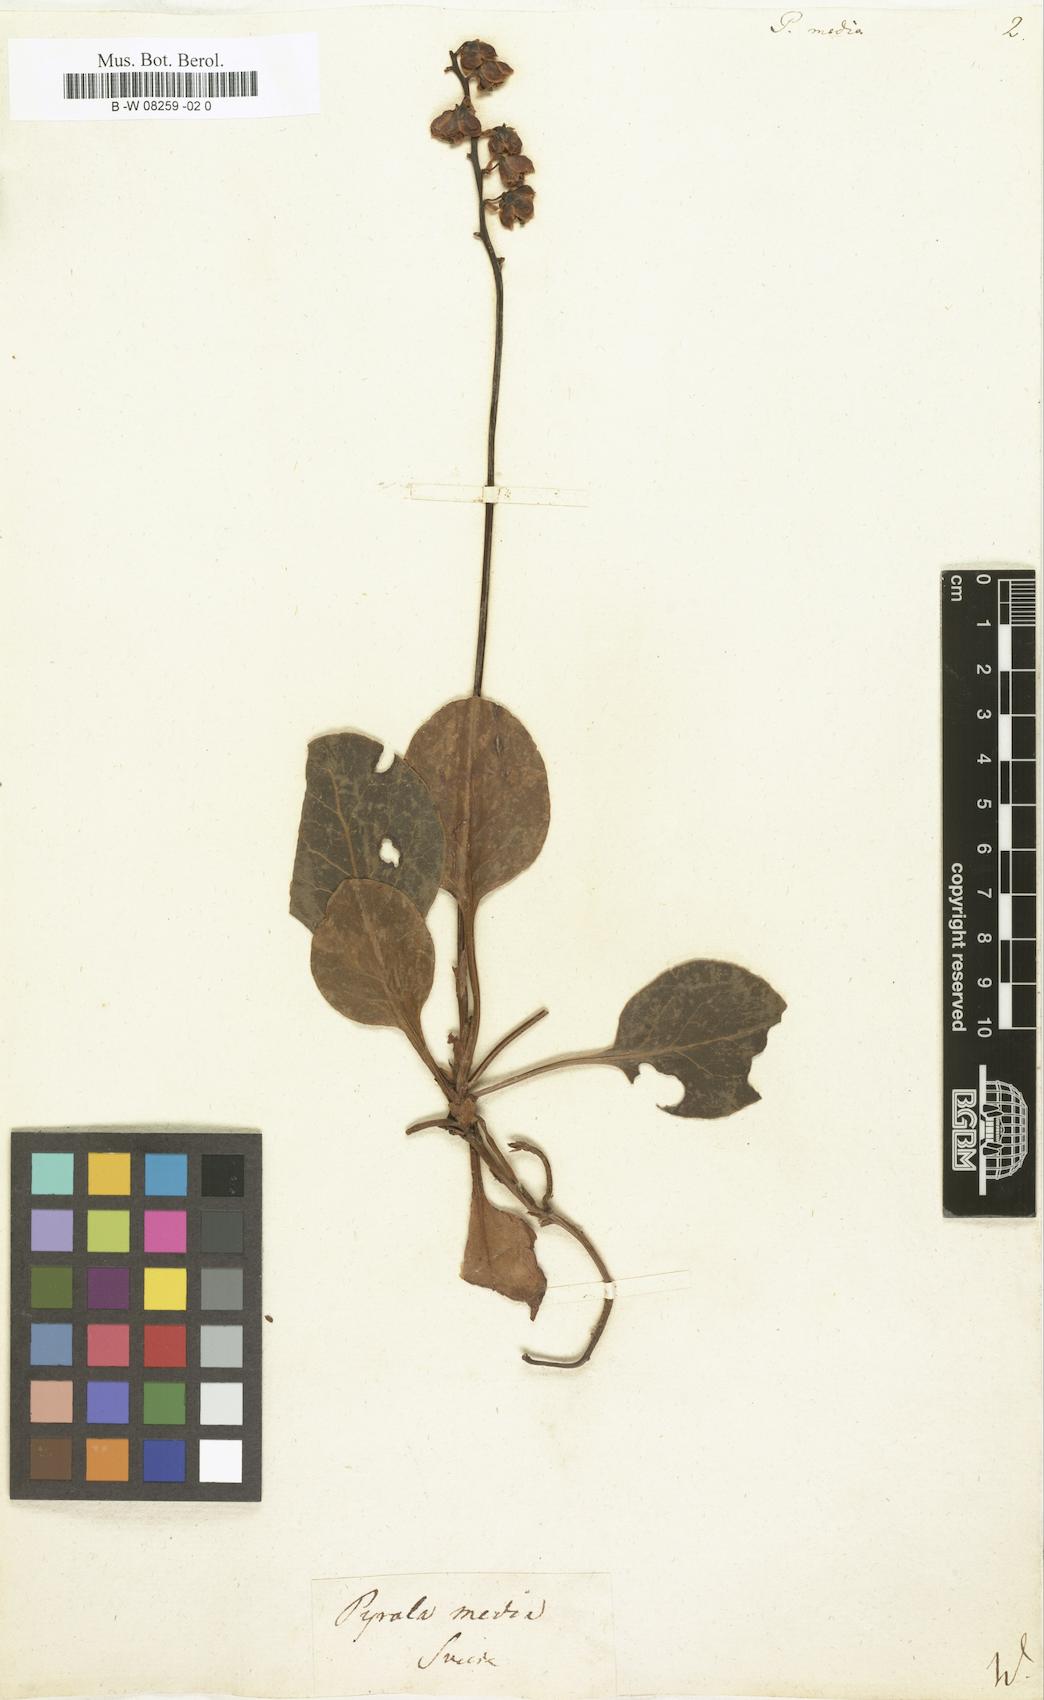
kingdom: Plantae
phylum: Tracheophyta
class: Magnoliopsida
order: Ericales
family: Ericaceae
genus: Pyrola
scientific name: Pyrola media
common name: Intermediate wintergreen
